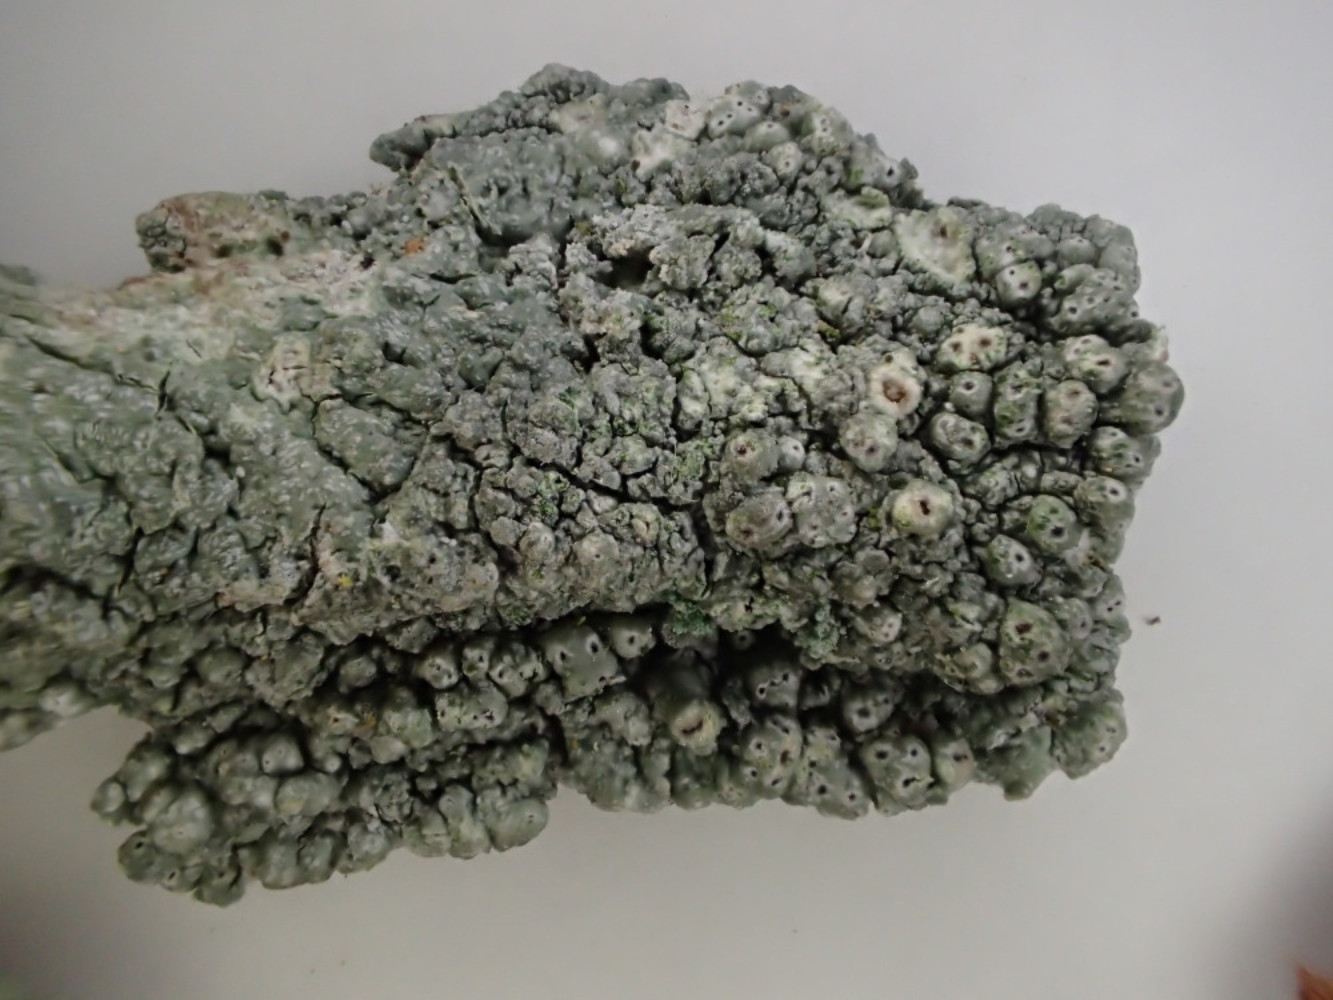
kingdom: Fungi
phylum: Ascomycota
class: Lecanoromycetes
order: Pertusariales
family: Pertusariaceae
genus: Pertusaria
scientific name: Pertusaria pertusa
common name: almindelig prikvortelav
